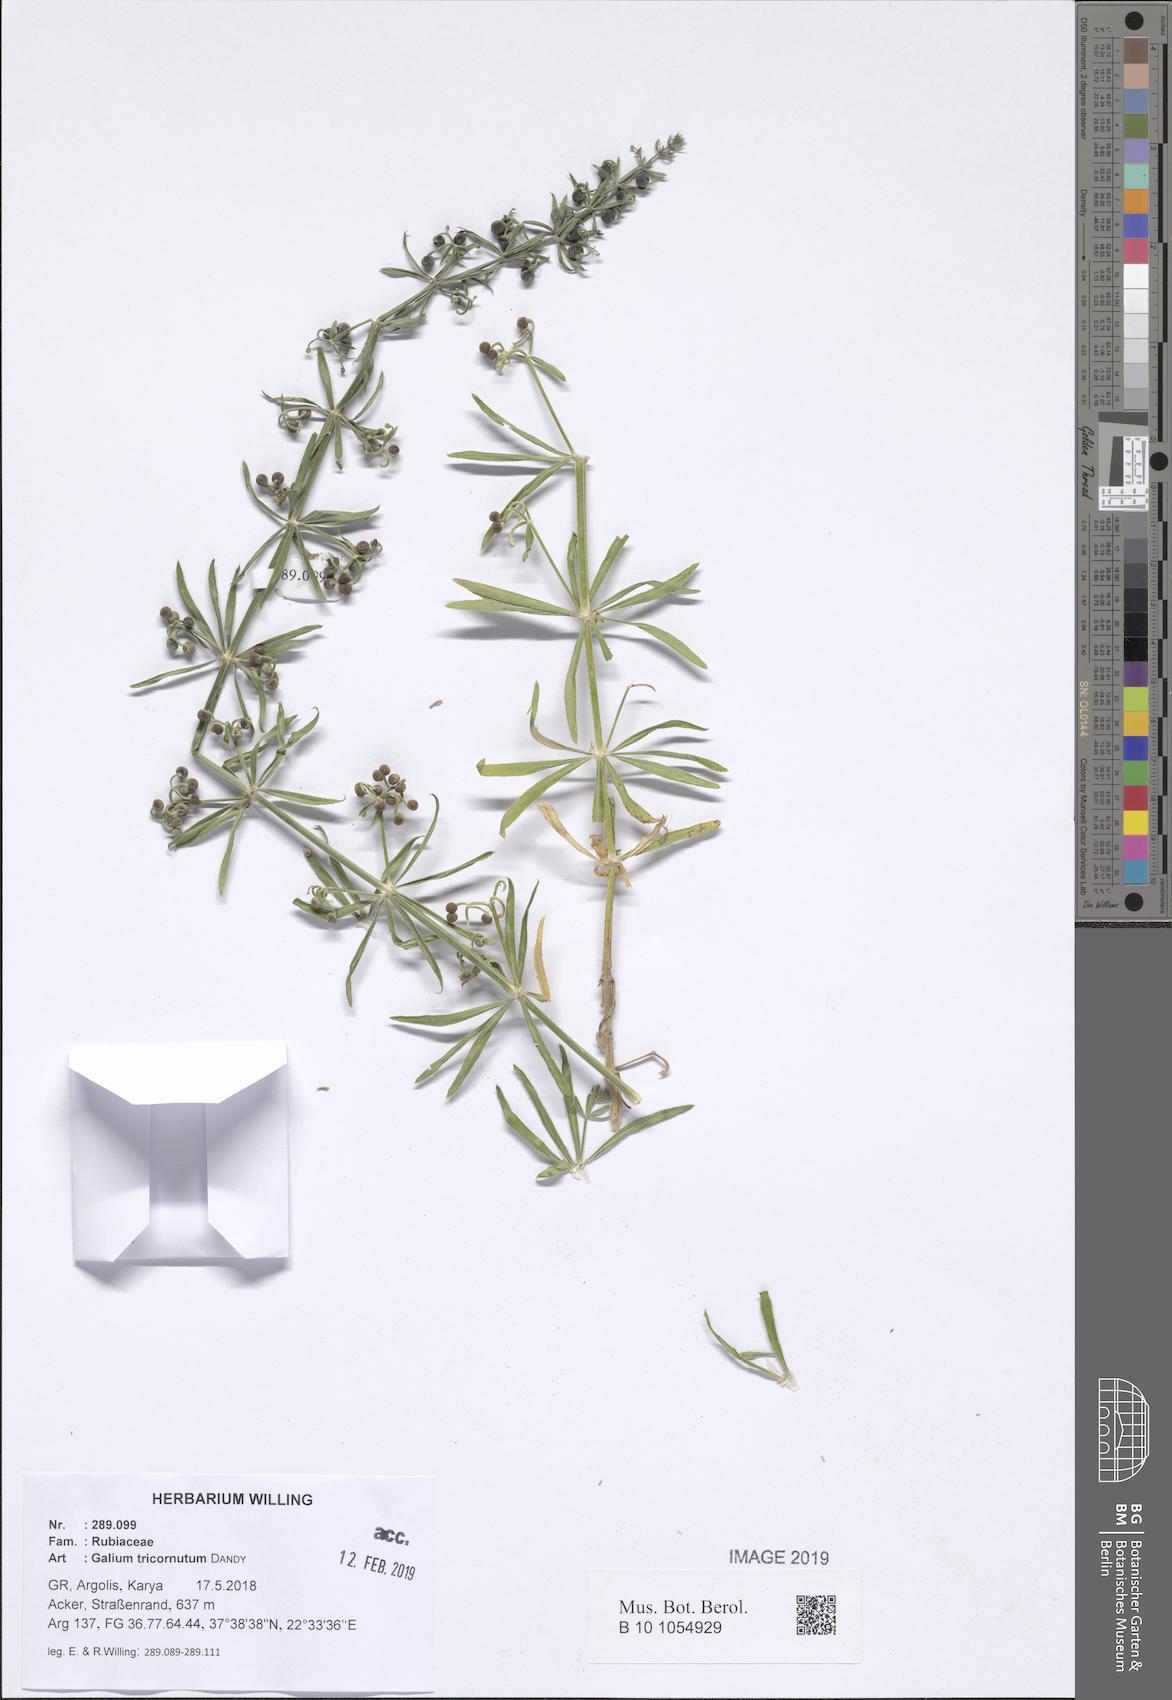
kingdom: Plantae
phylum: Tracheophyta
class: Magnoliopsida
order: Gentianales
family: Rubiaceae
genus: Galium
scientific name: Galium tricornutum
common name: Corn cleavers
